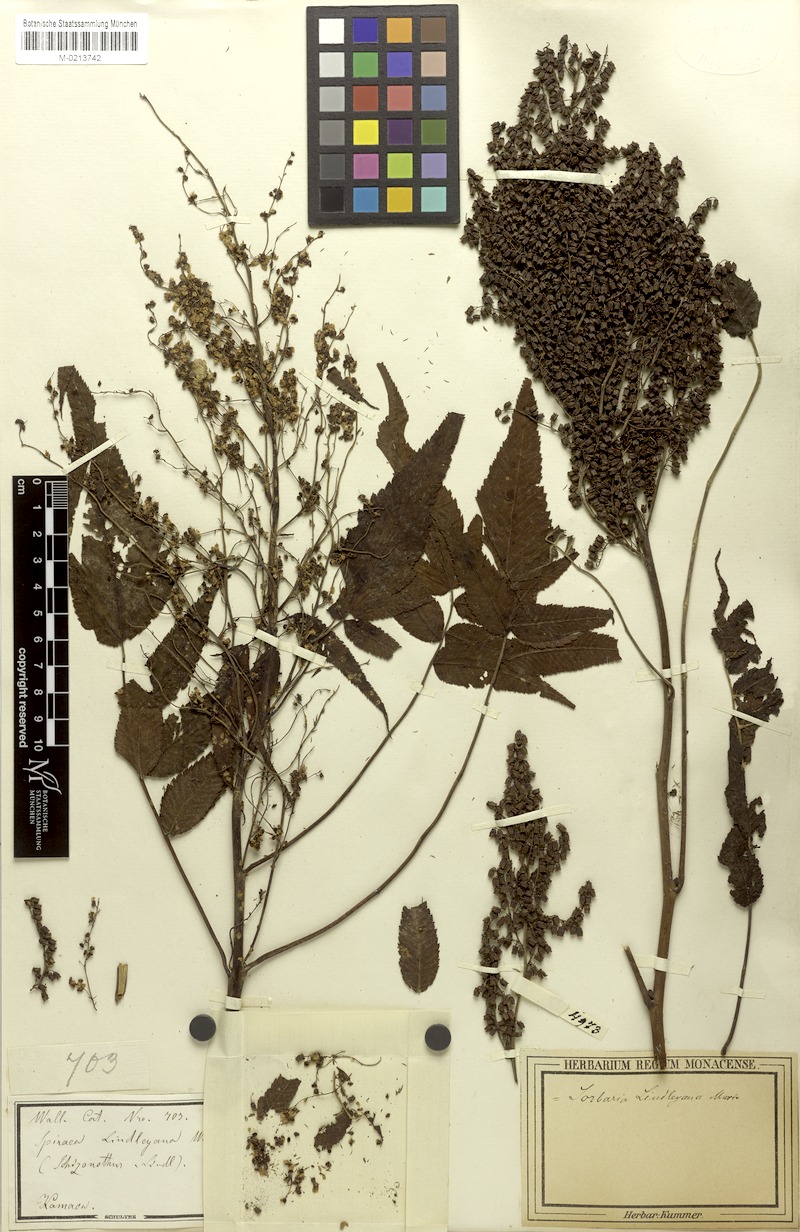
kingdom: Plantae
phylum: Tracheophyta
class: Magnoliopsida
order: Rosales
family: Rosaceae
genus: Sorbaria
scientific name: Sorbaria tomentosa
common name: Himalayan sorbaria
